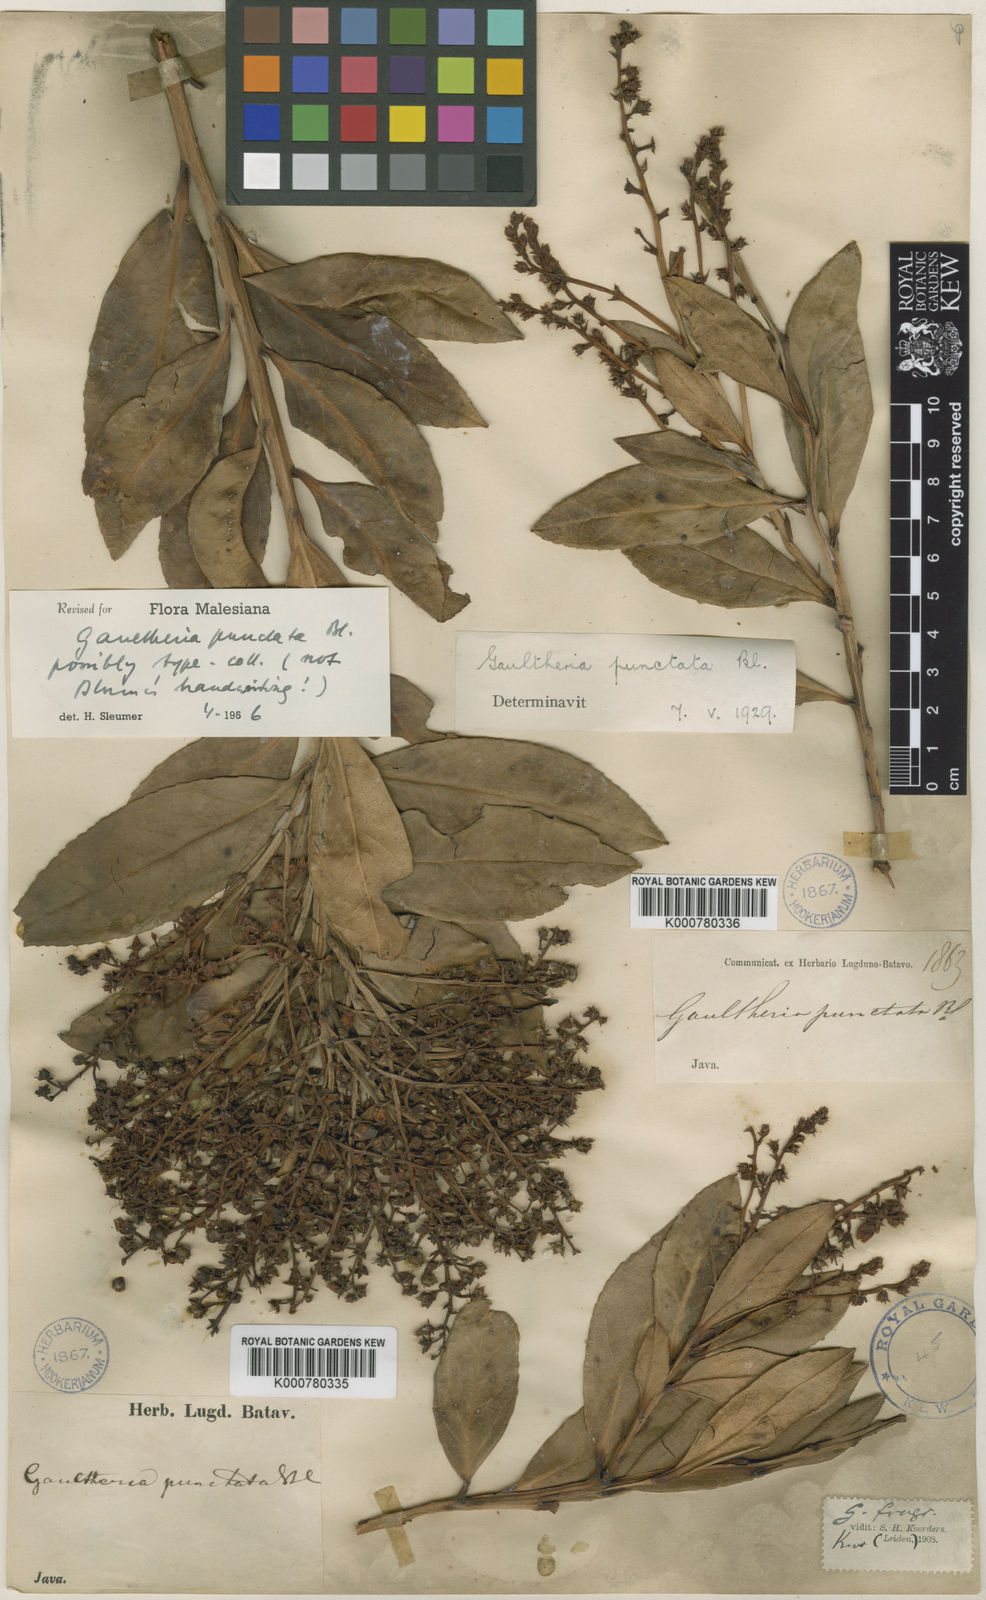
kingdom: Plantae
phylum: Tracheophyta
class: Magnoliopsida
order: Ericales
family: Ericaceae
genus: Gaultheria
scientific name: Gaultheria fragrantissima
